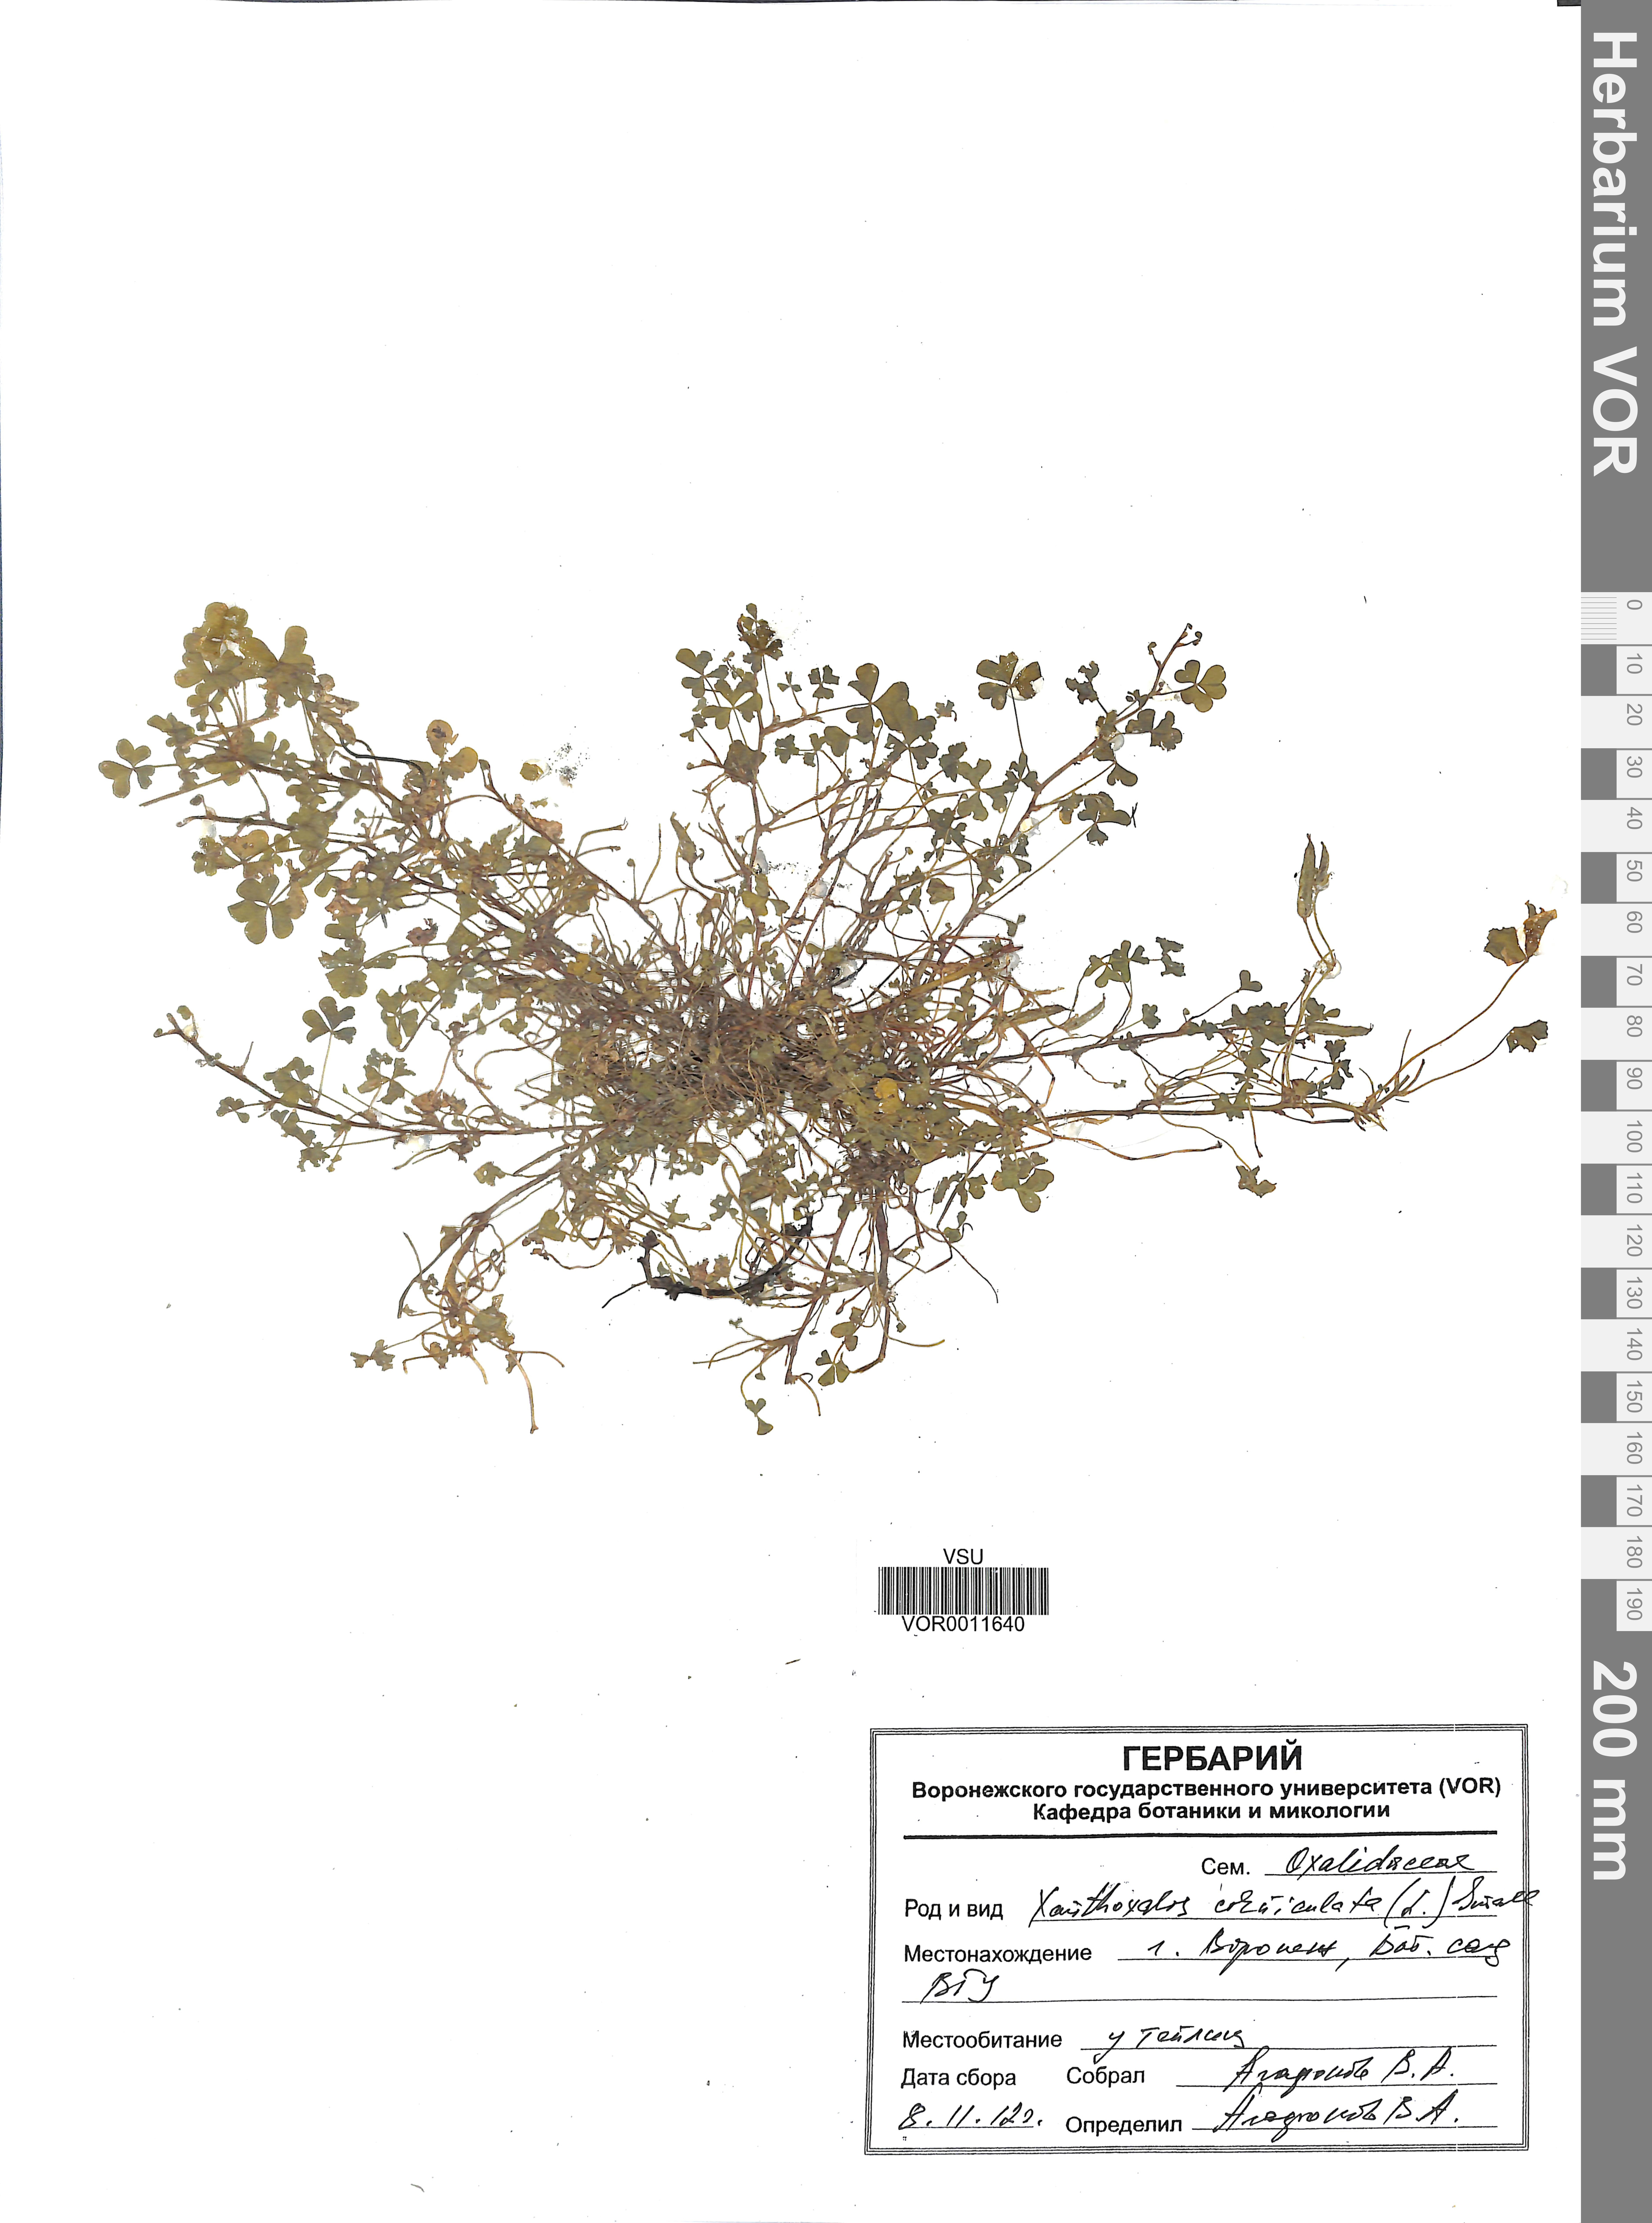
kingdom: Plantae
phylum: Tracheophyta
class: Magnoliopsida
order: Oxalidales
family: Oxalidaceae
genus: Oxalis
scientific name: Oxalis corniculata
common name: Procumbent yellow-sorrel
